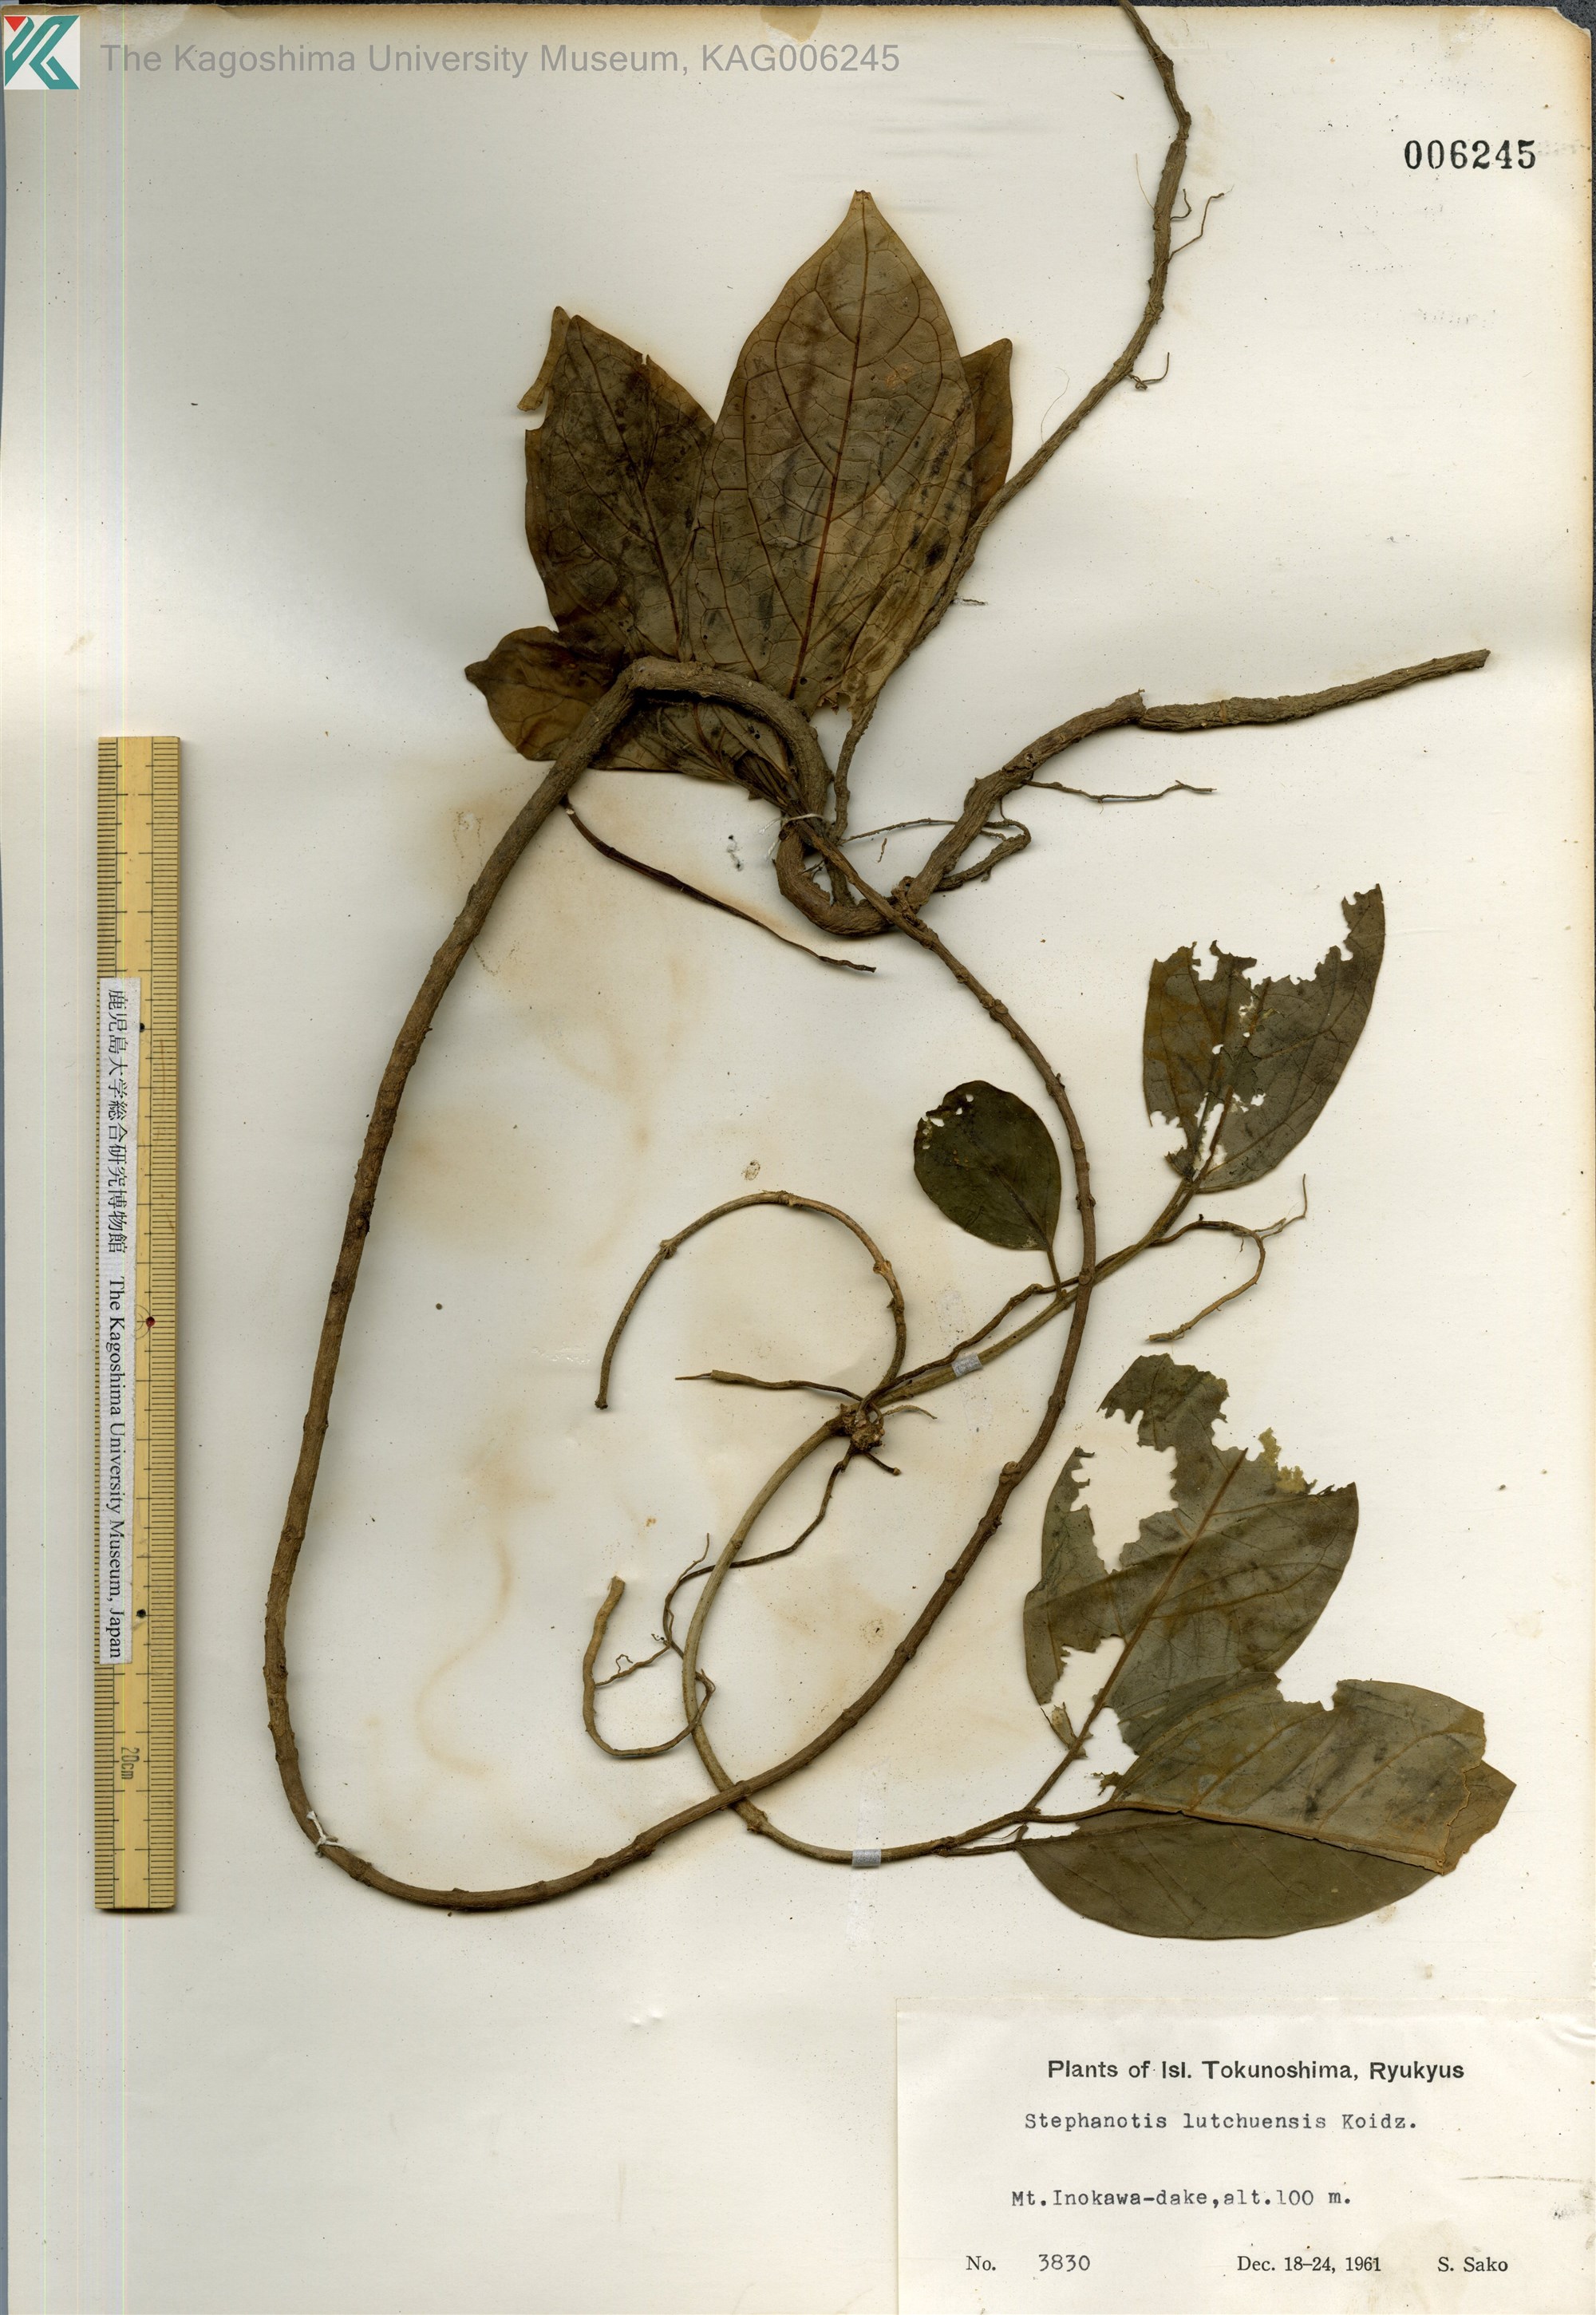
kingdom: Plantae
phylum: Tracheophyta
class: Magnoliopsida
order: Gentianales
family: Apocynaceae
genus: Jasminanthes
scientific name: Jasminanthes mucronata
